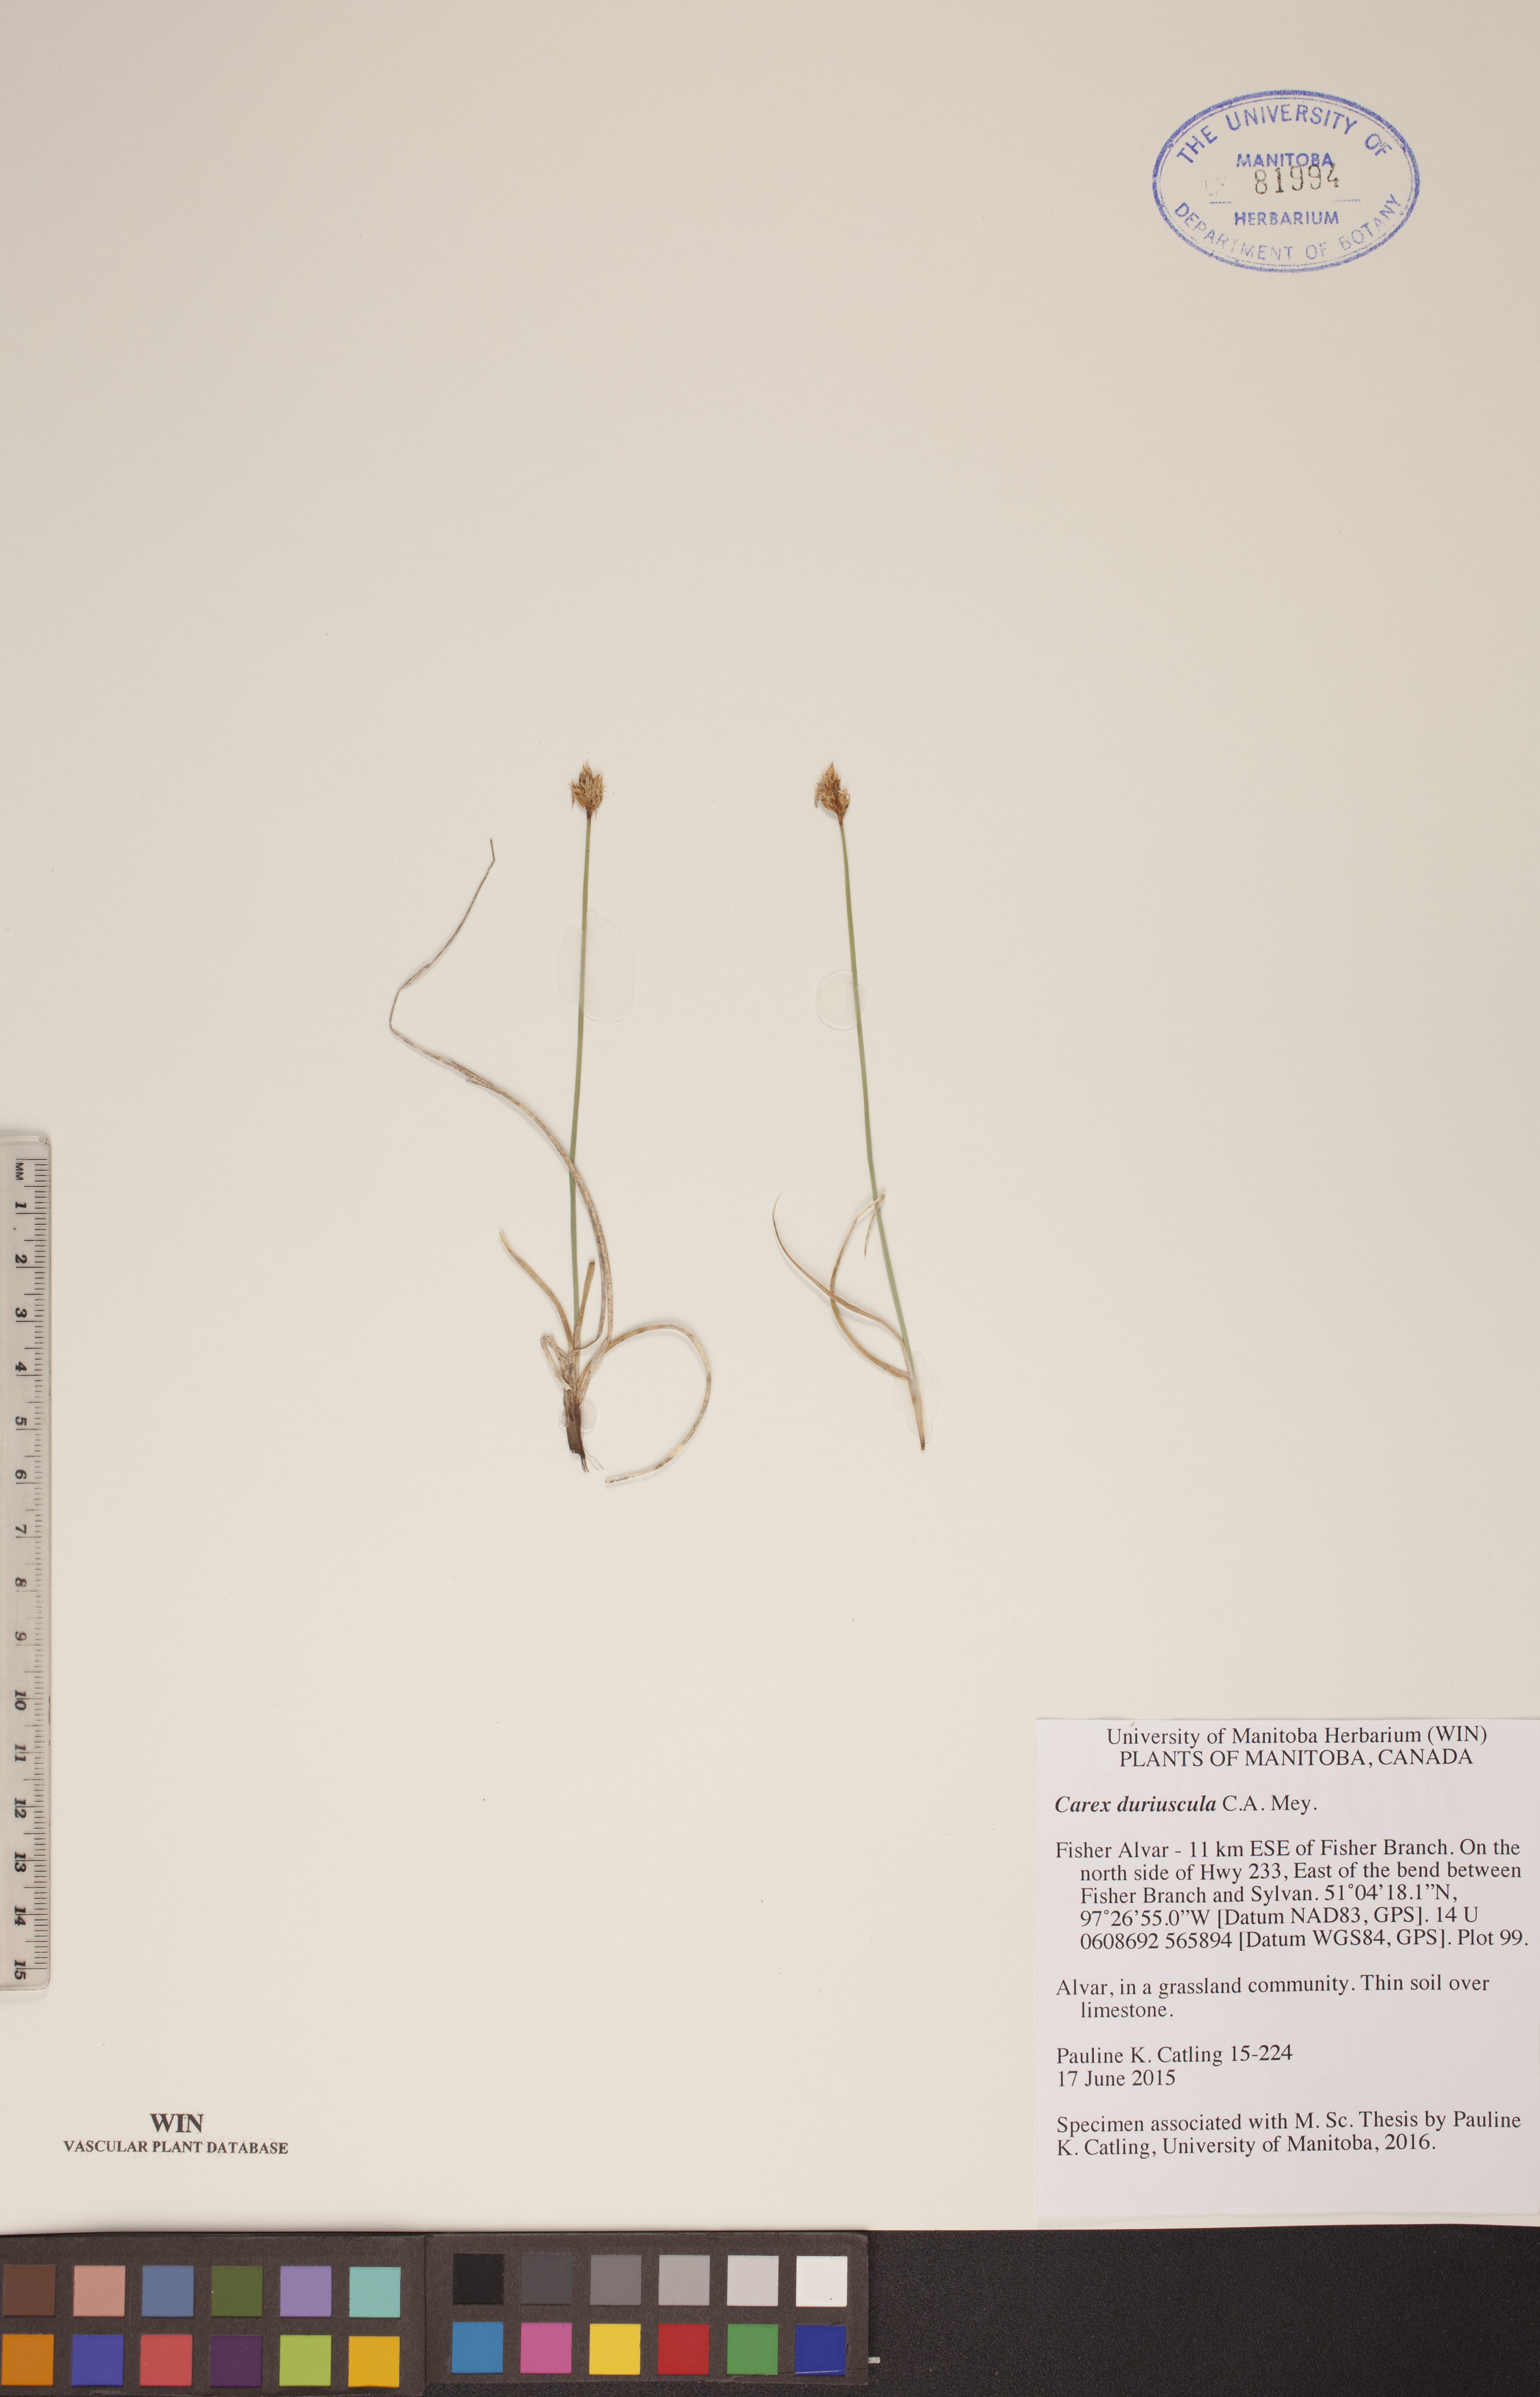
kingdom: Plantae
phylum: Tracheophyta
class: Liliopsida
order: Poales
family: Cyperaceae
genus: Carex
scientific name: Carex duriuscula
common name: Involute-leaved sedge
